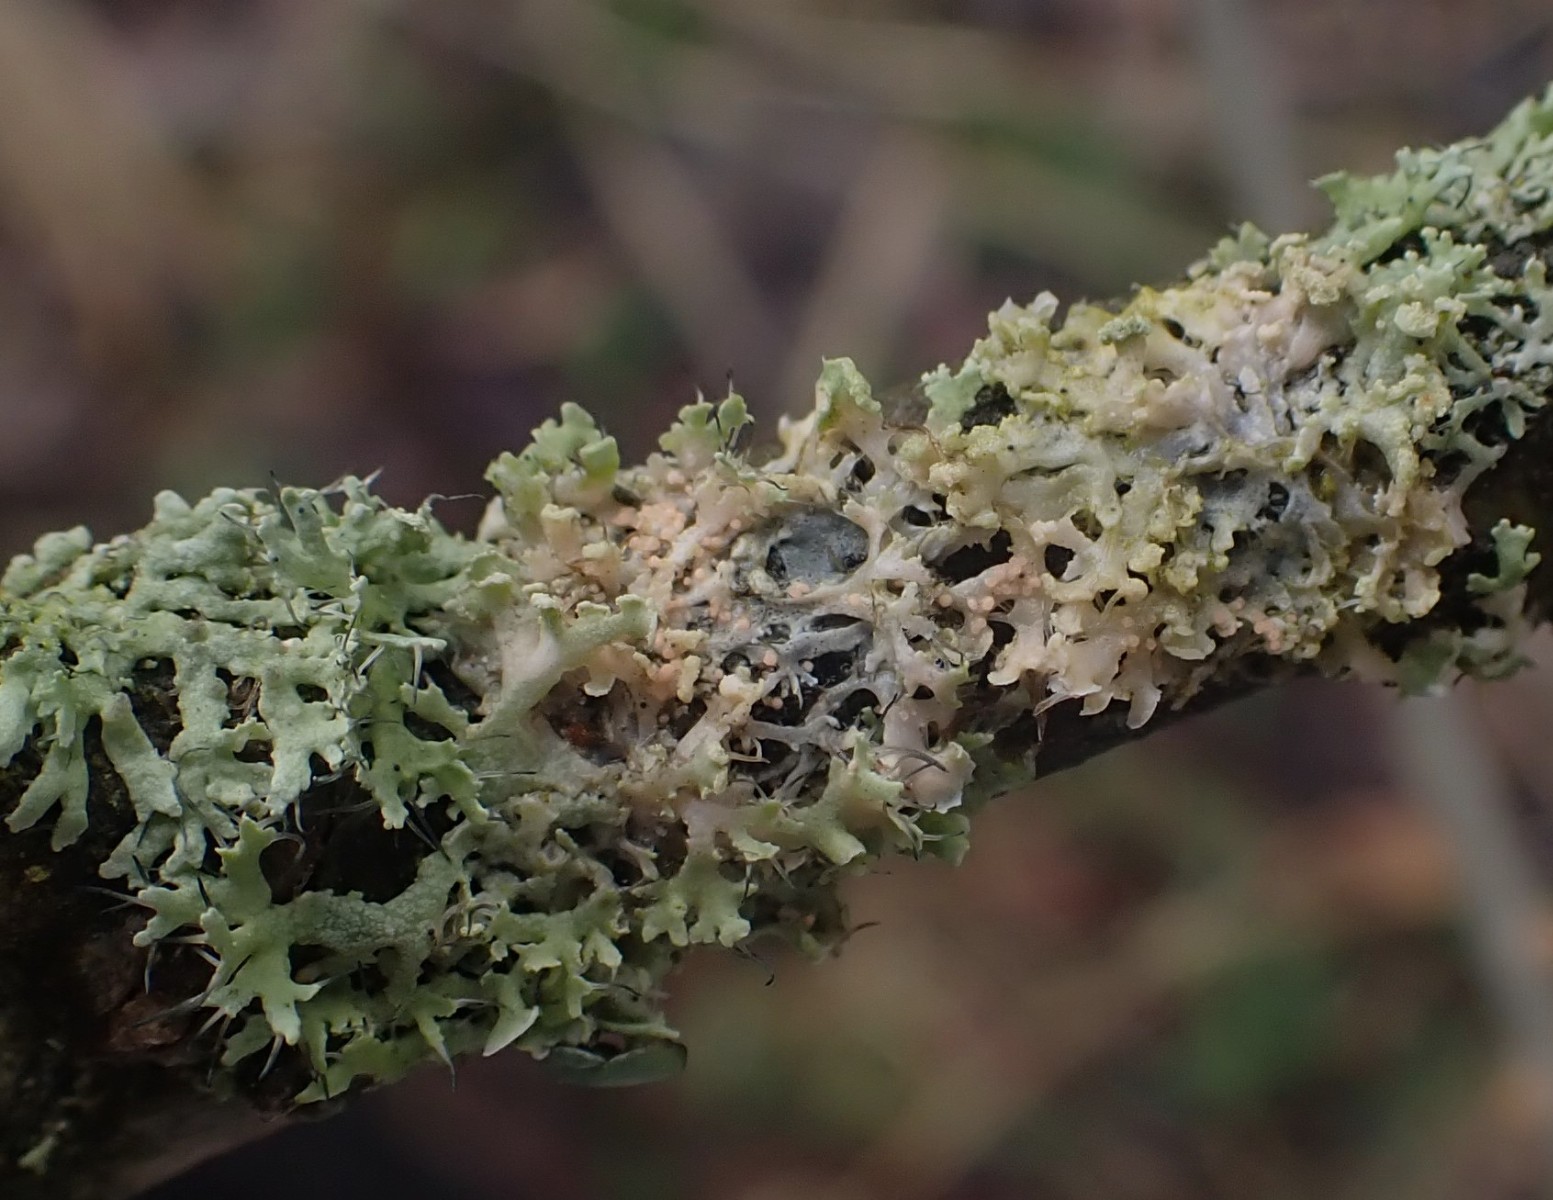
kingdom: Fungi
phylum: Basidiomycota
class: Agaricomycetes
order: Corticiales
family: Corticiaceae
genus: Erythricium
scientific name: Erythricium aurantiacum
